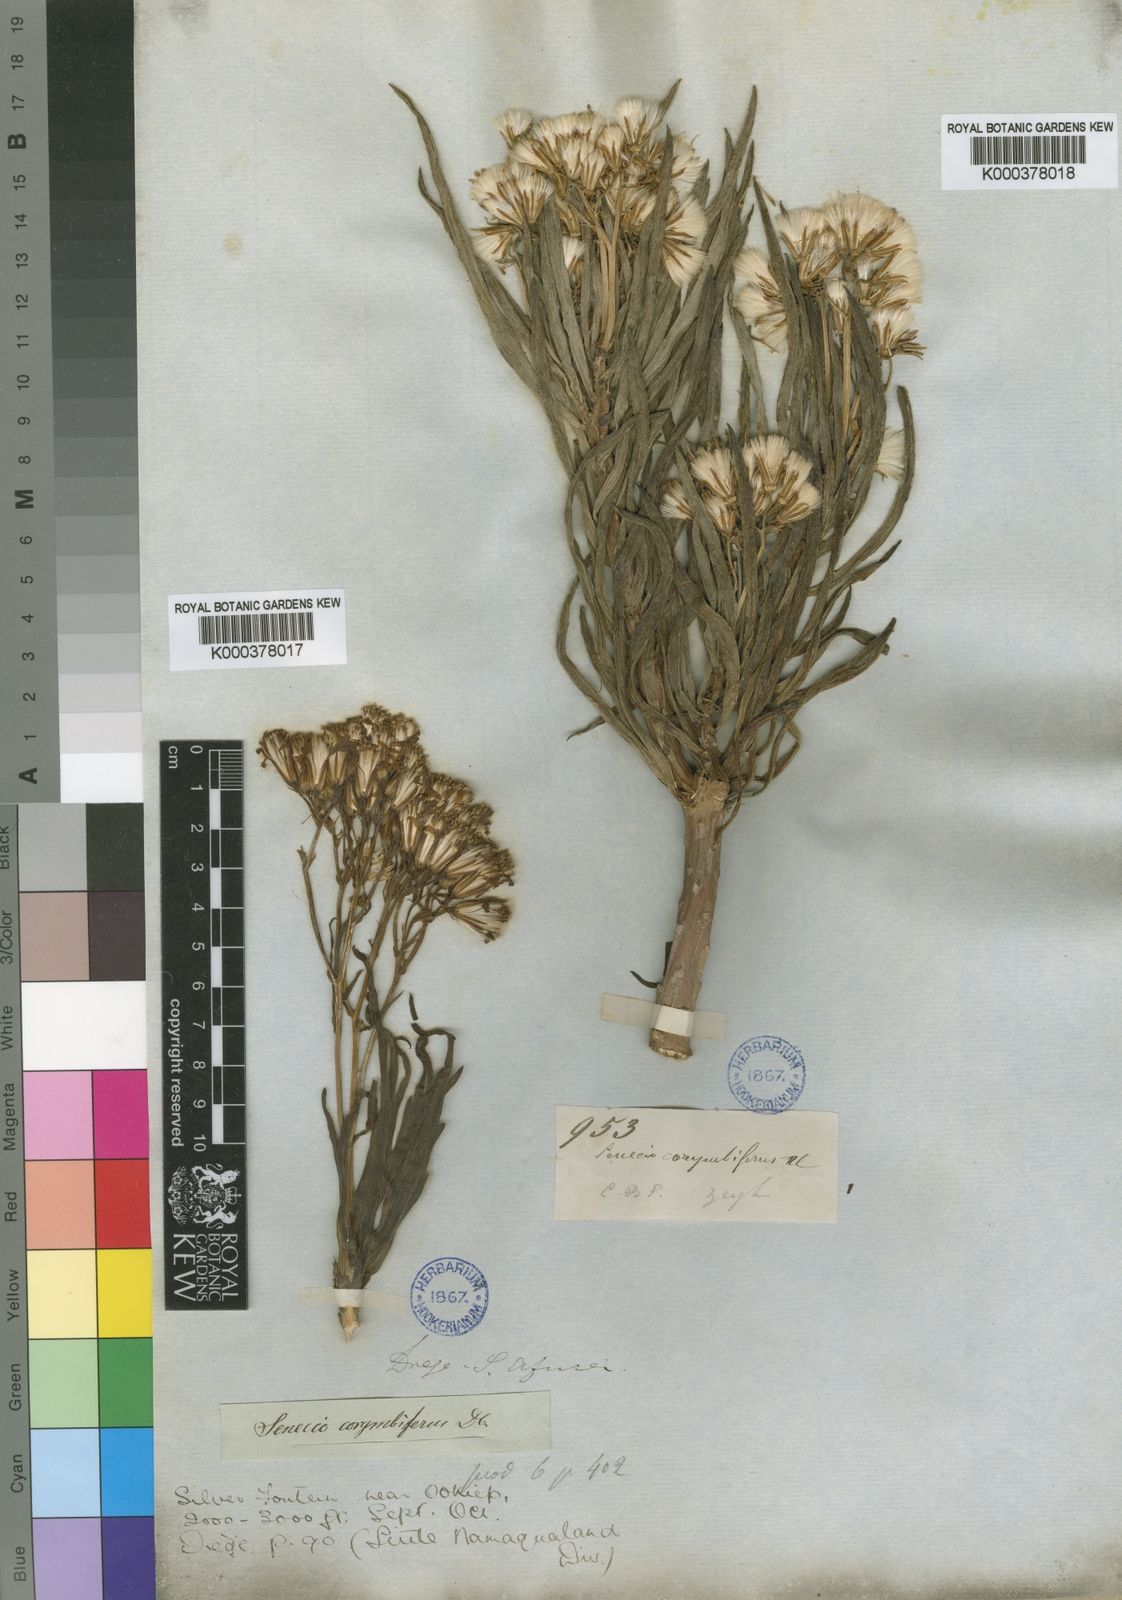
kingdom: Plantae
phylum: Tracheophyta
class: Magnoliopsida
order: Asterales
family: Asteraceae
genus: Senecio
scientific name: Senecio
